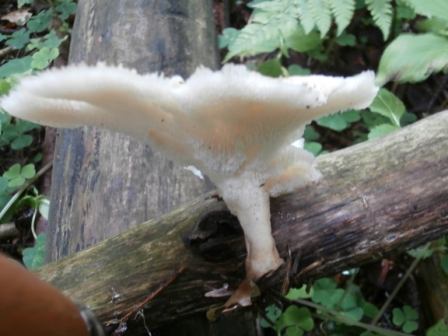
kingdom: Fungi
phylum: Basidiomycota
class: Agaricomycetes
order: Polyporales
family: Polyporaceae
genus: Polyporus
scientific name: Polyporus tuberaster
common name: knoldet stilkporesvamp
